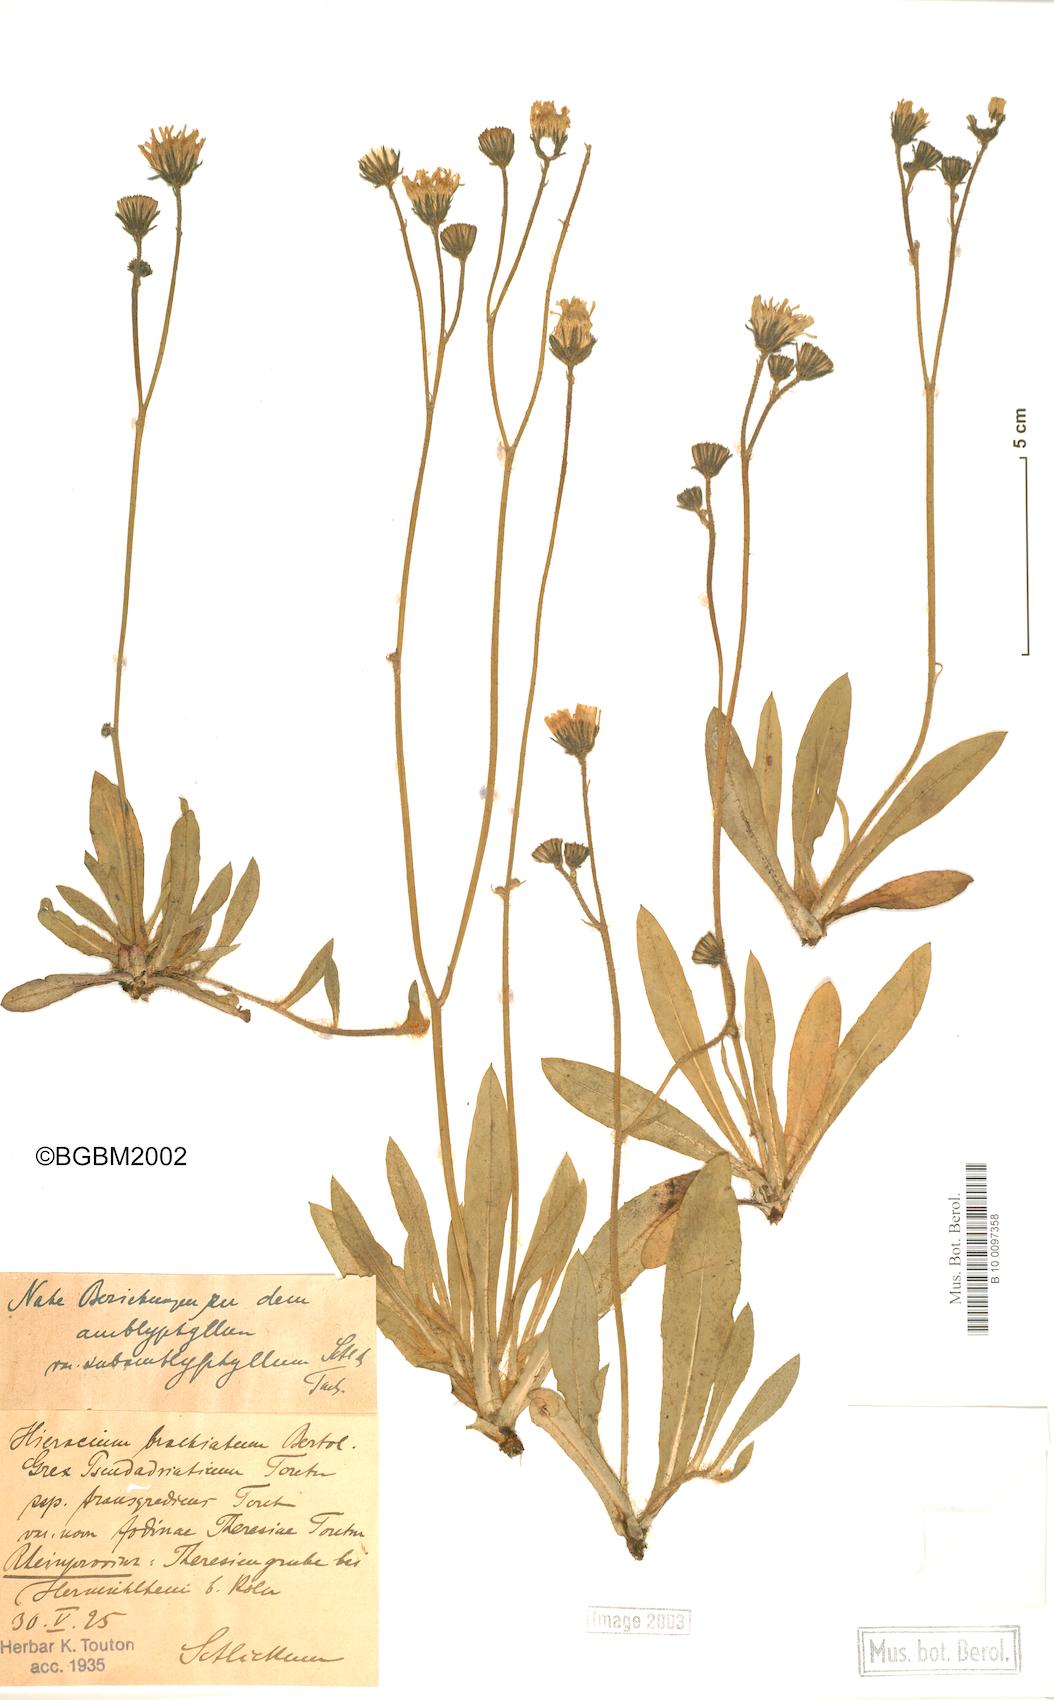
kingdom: Plantae
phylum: Tracheophyta
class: Magnoliopsida
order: Asterales
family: Asteraceae
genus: Pilosella
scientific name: Pilosella acutifolia
